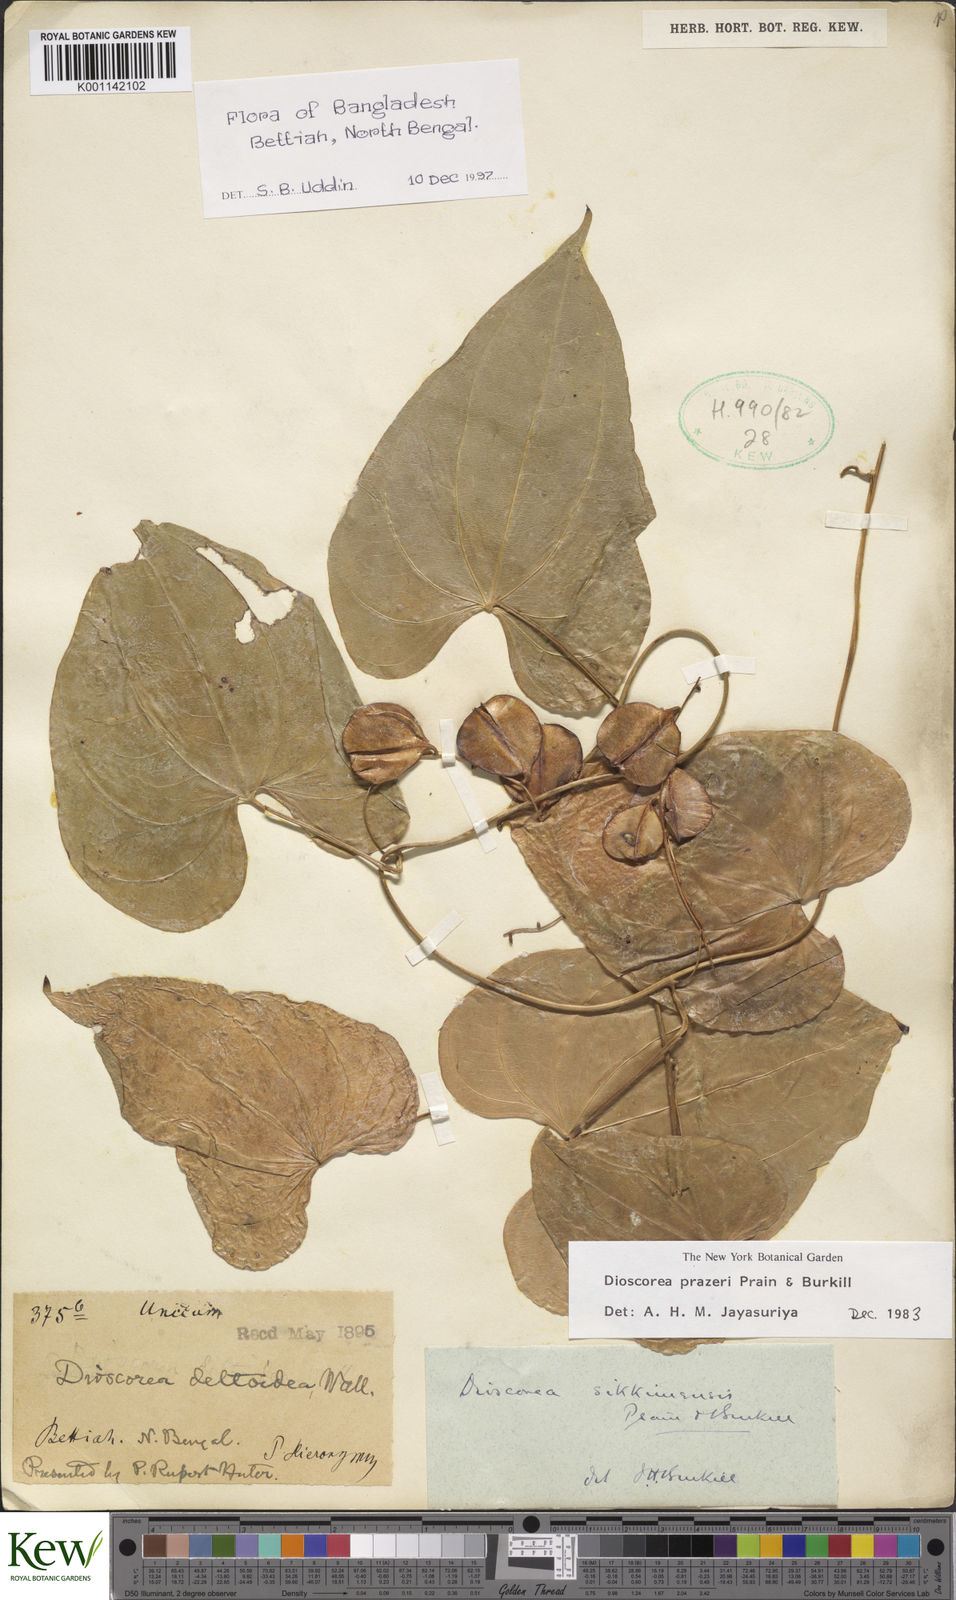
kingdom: Plantae
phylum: Tracheophyta
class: Liliopsida
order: Dioscoreales
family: Dioscoreaceae
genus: Dioscorea
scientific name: Dioscorea prazeri
